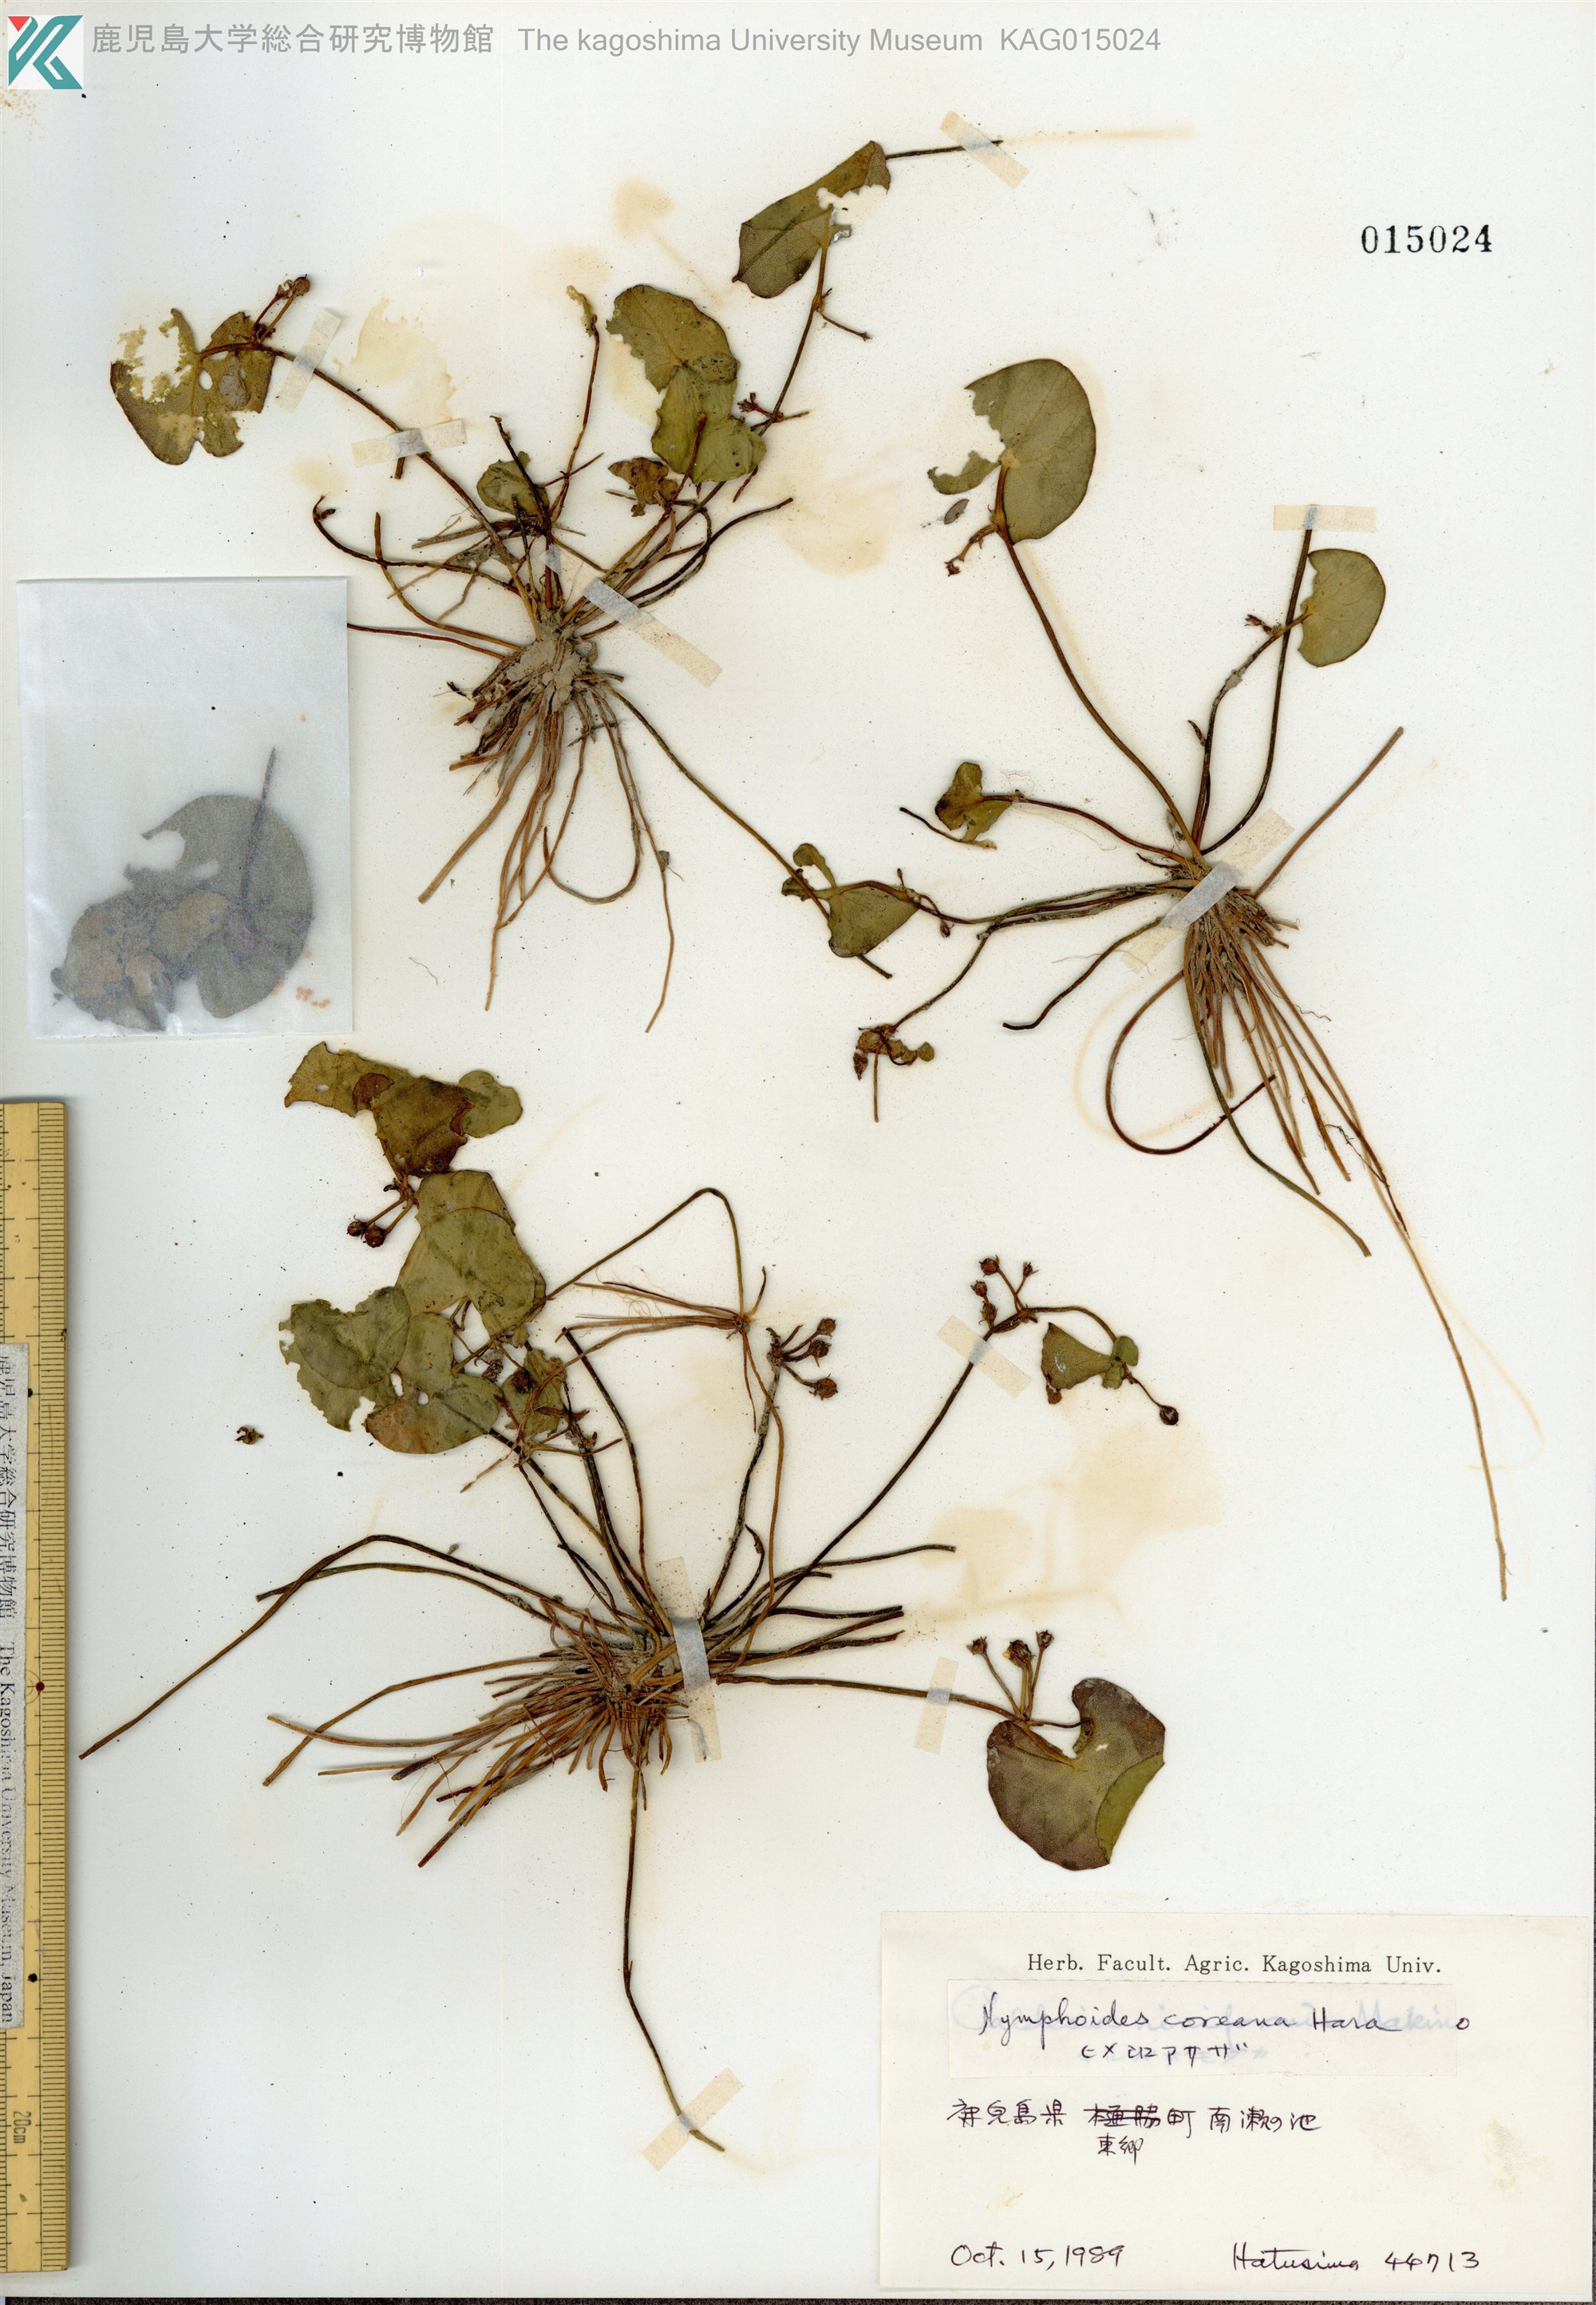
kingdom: Plantae
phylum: Tracheophyta
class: Magnoliopsida
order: Asterales
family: Menyanthaceae
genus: Nymphoides
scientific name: Nymphoides coreana
